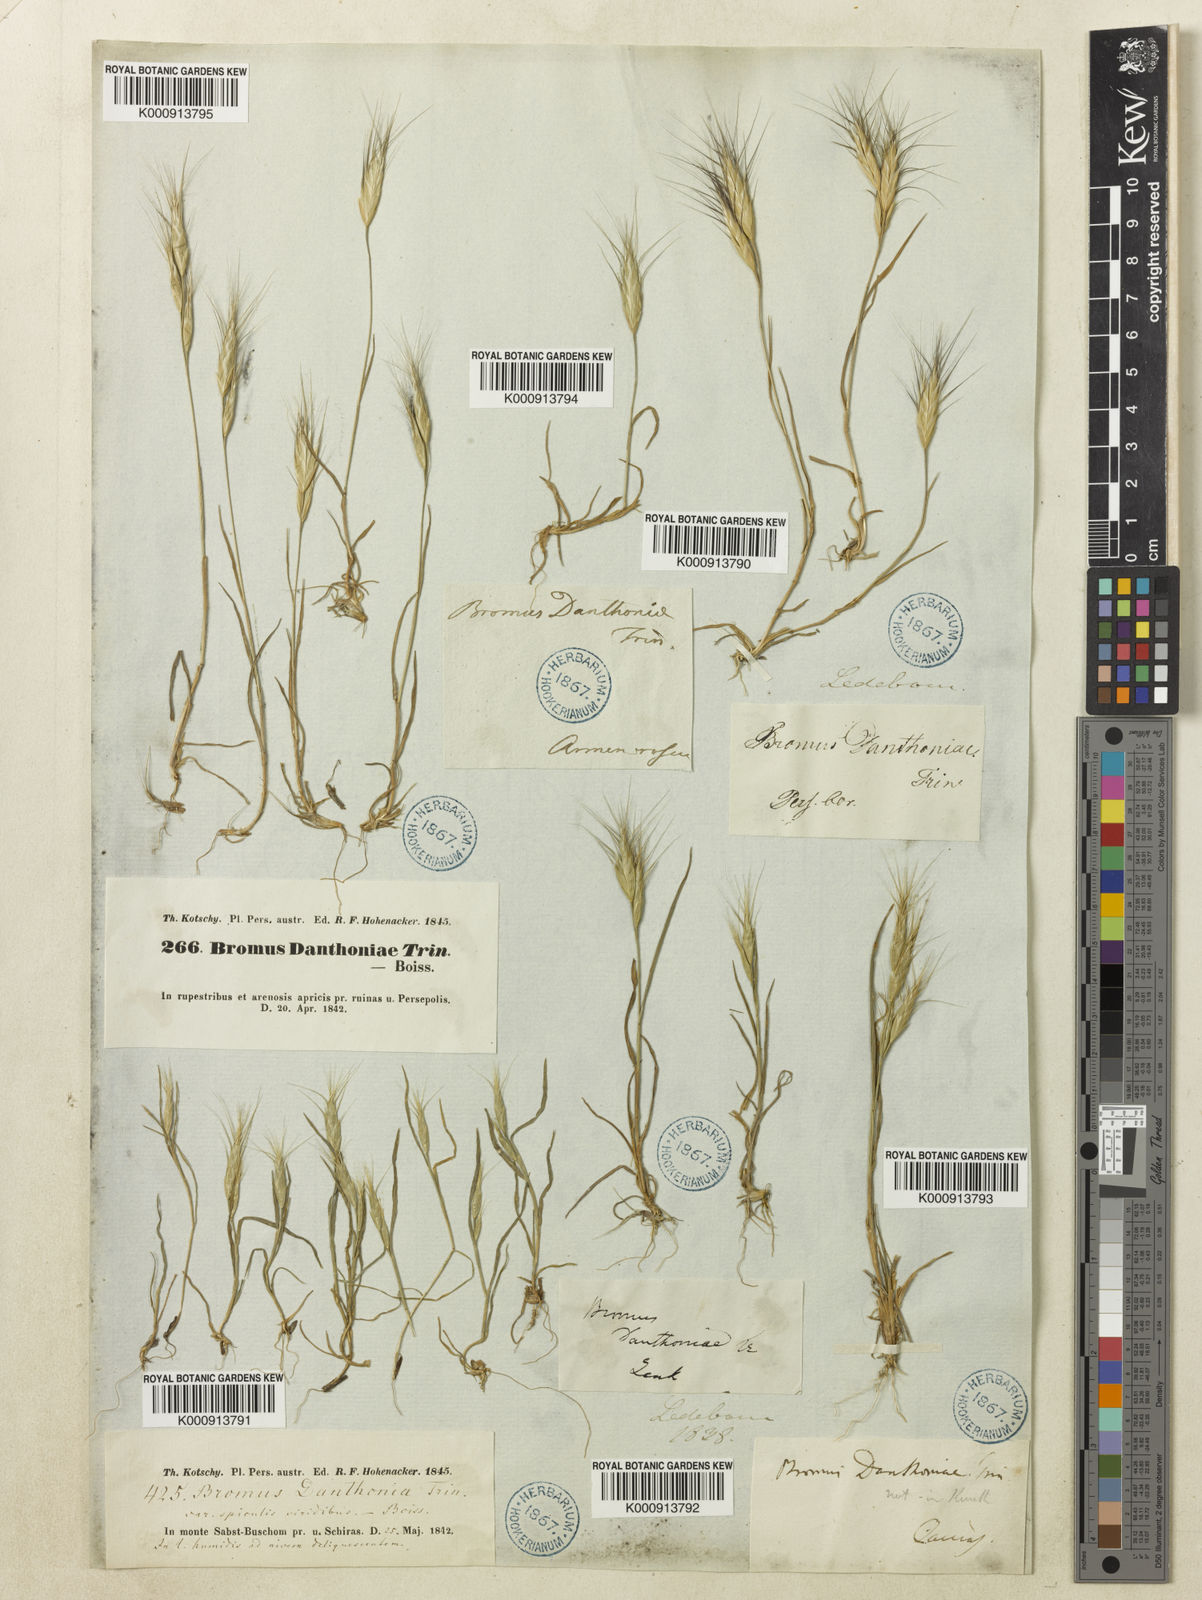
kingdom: Plantae
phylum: Tracheophyta
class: Liliopsida
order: Poales
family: Poaceae
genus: Bromus
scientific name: Bromus danthoniae
